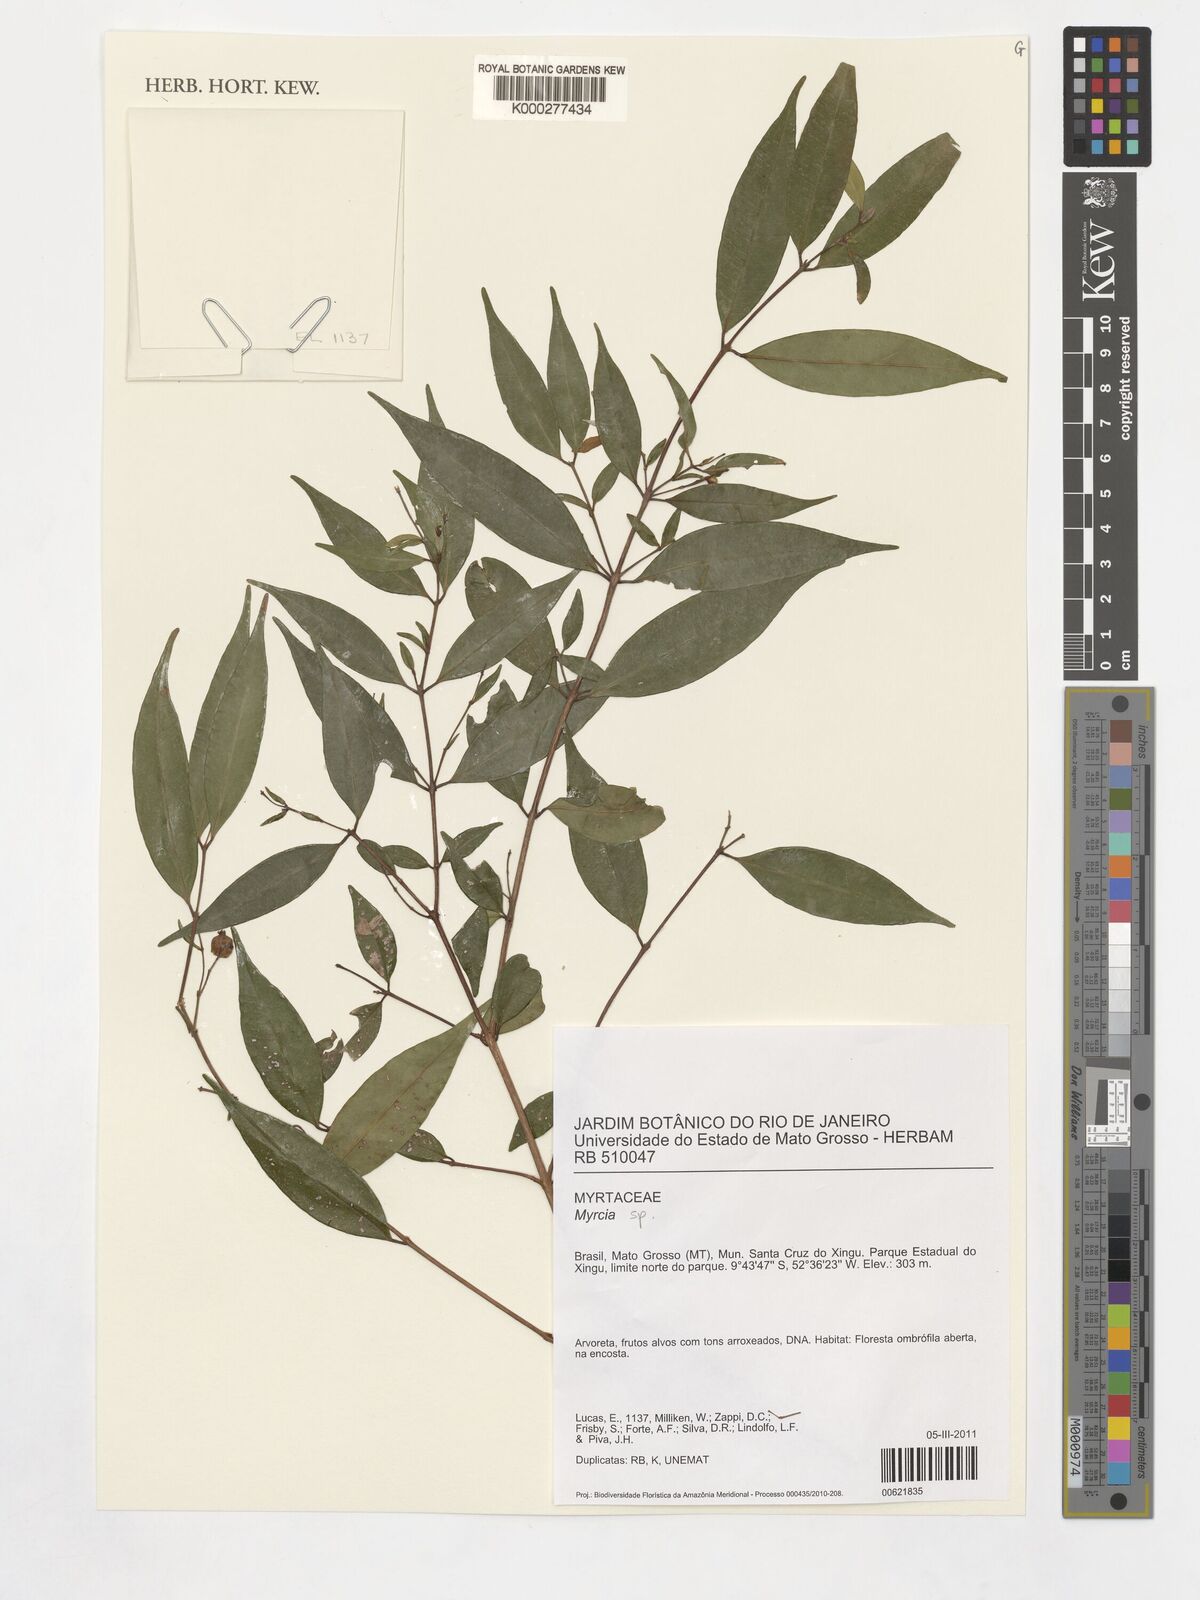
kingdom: Plantae
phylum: Tracheophyta
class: Magnoliopsida
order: Myrtales
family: Myrtaceae
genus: Myrcia
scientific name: Myrcia splendens
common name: Surinam cherry
